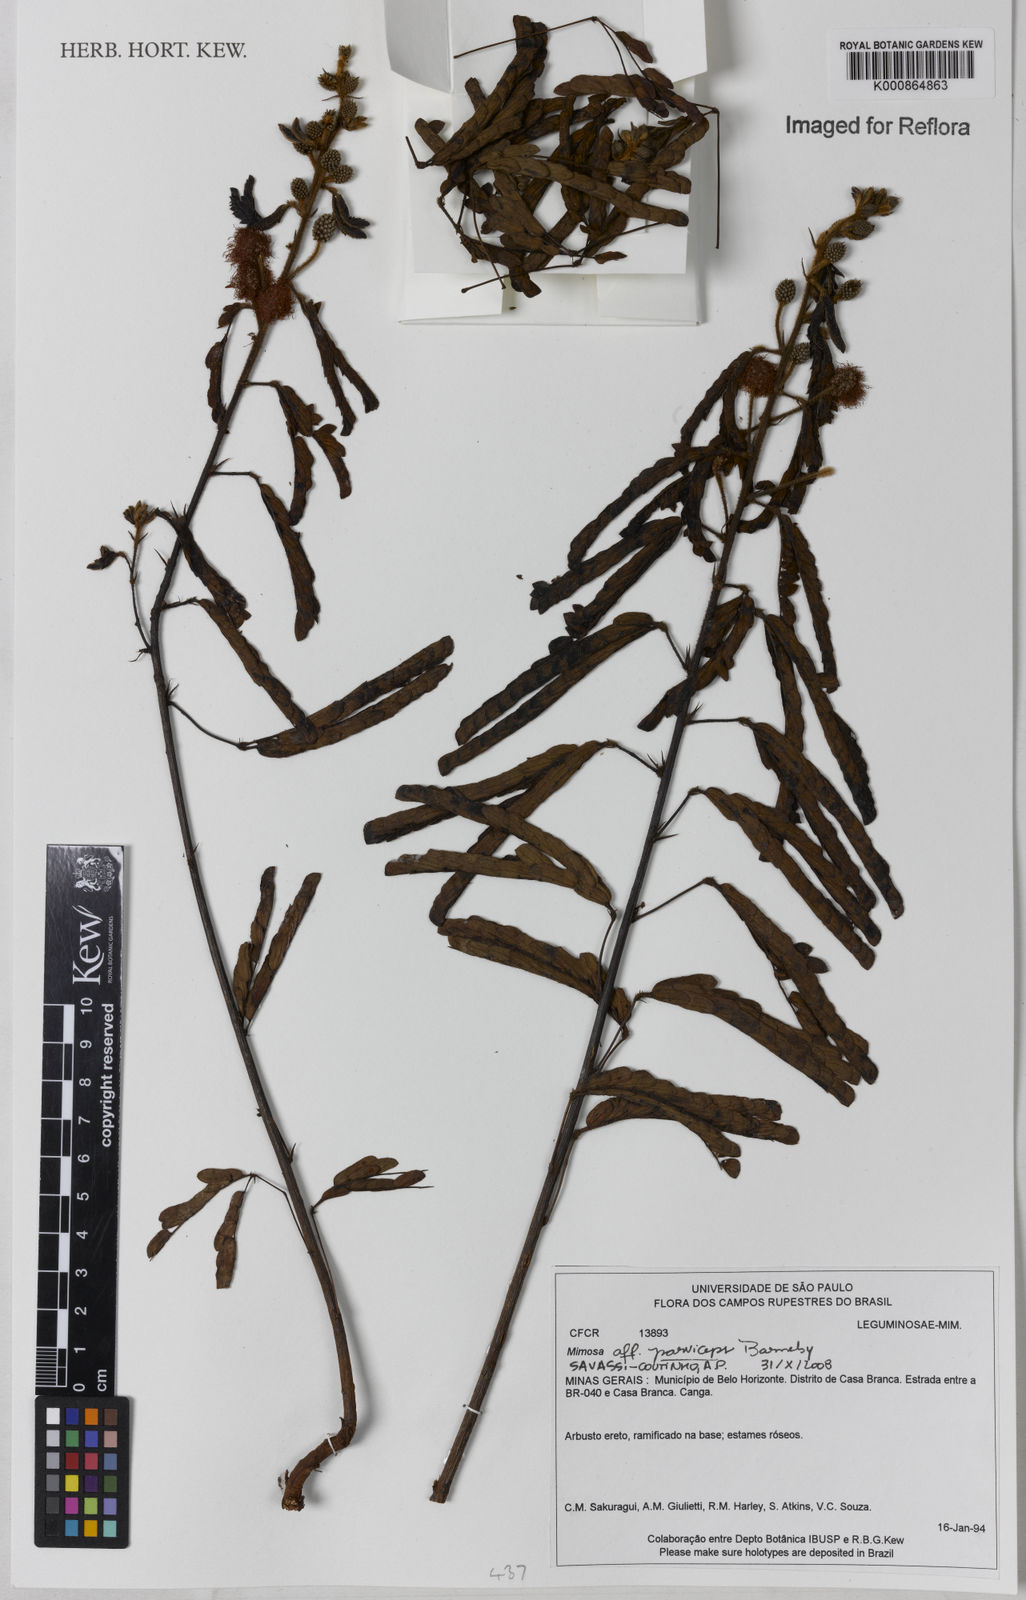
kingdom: Plantae
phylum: Tracheophyta
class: Magnoliopsida
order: Fabales
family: Fabaceae
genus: Mimosa
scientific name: Mimosa parviceps
